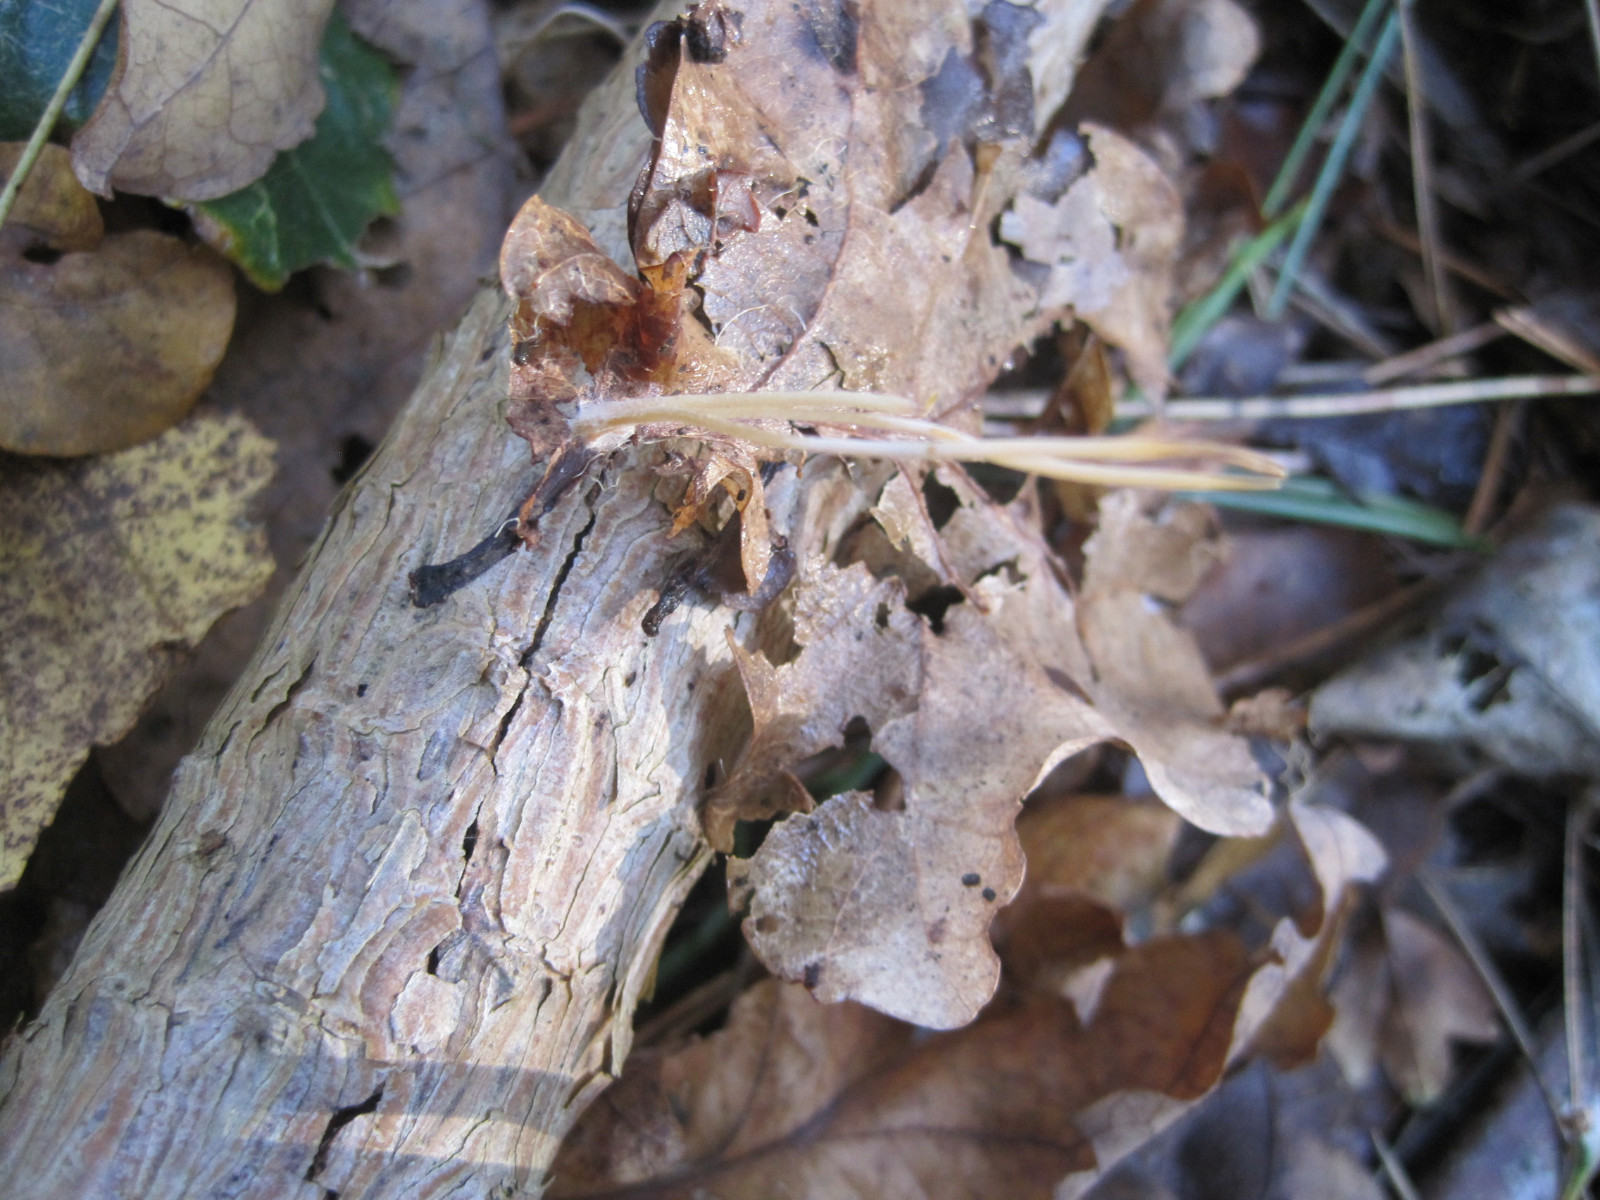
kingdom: Fungi
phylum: Basidiomycota
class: Agaricomycetes
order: Agaricales
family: Typhulaceae
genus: Typhula
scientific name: Typhula juncea
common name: trådagtig rørkølle
